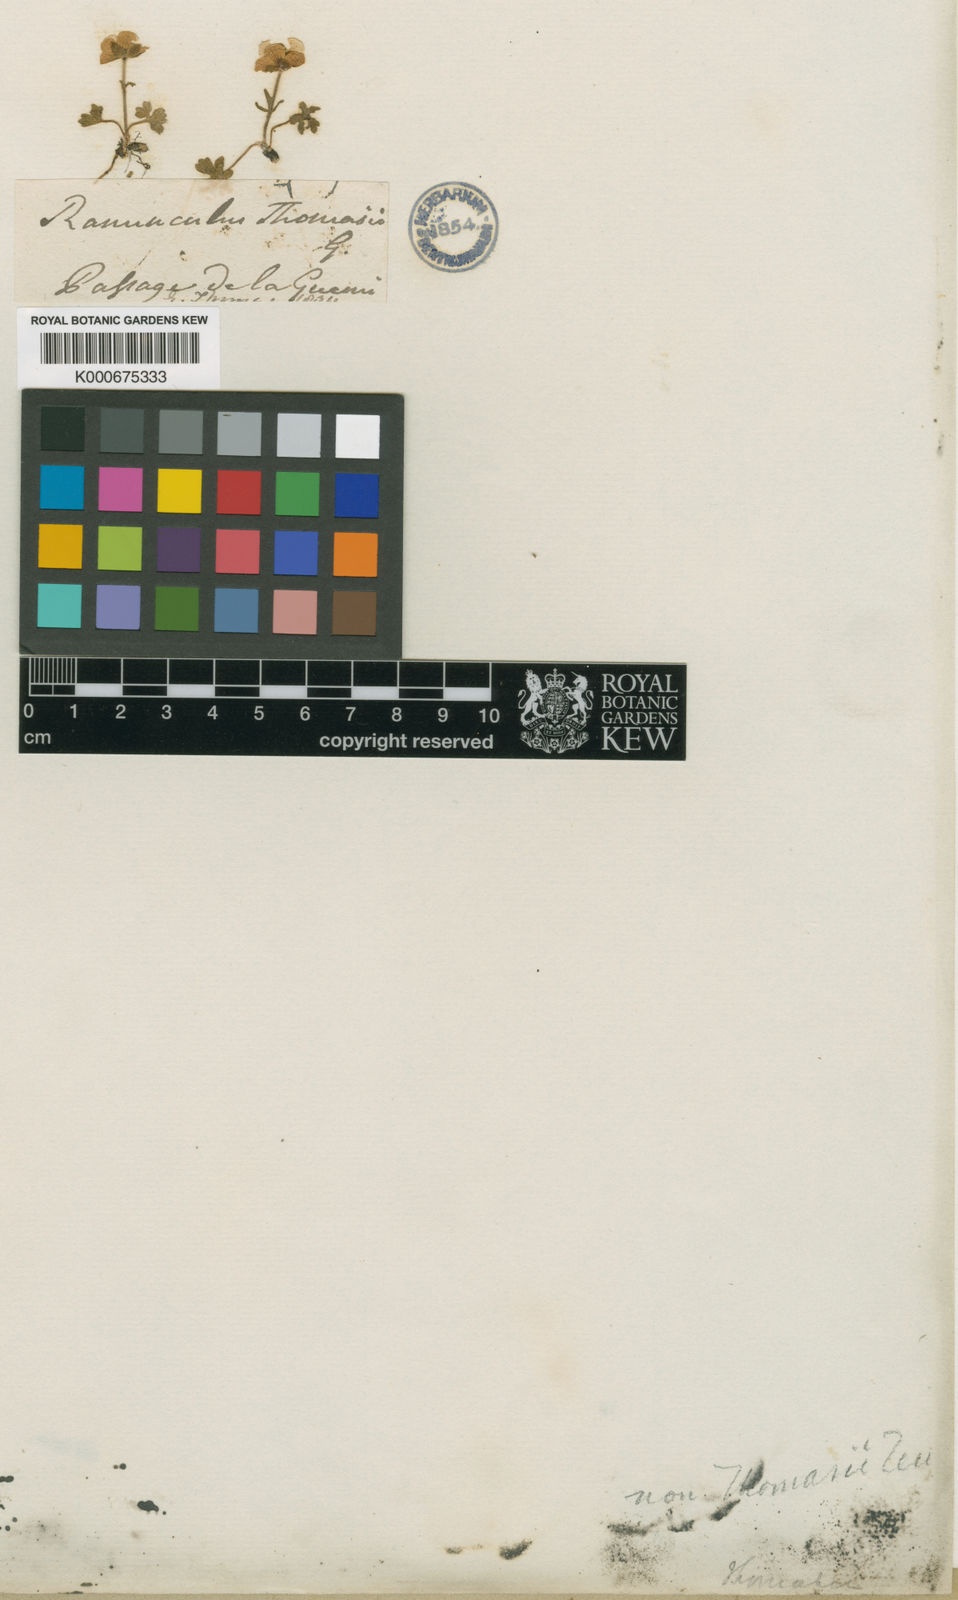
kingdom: Plantae
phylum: Tracheophyta
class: Magnoliopsida
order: Ranunculales
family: Ranunculaceae
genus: Ranunculus
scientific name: Ranunculus montanus
